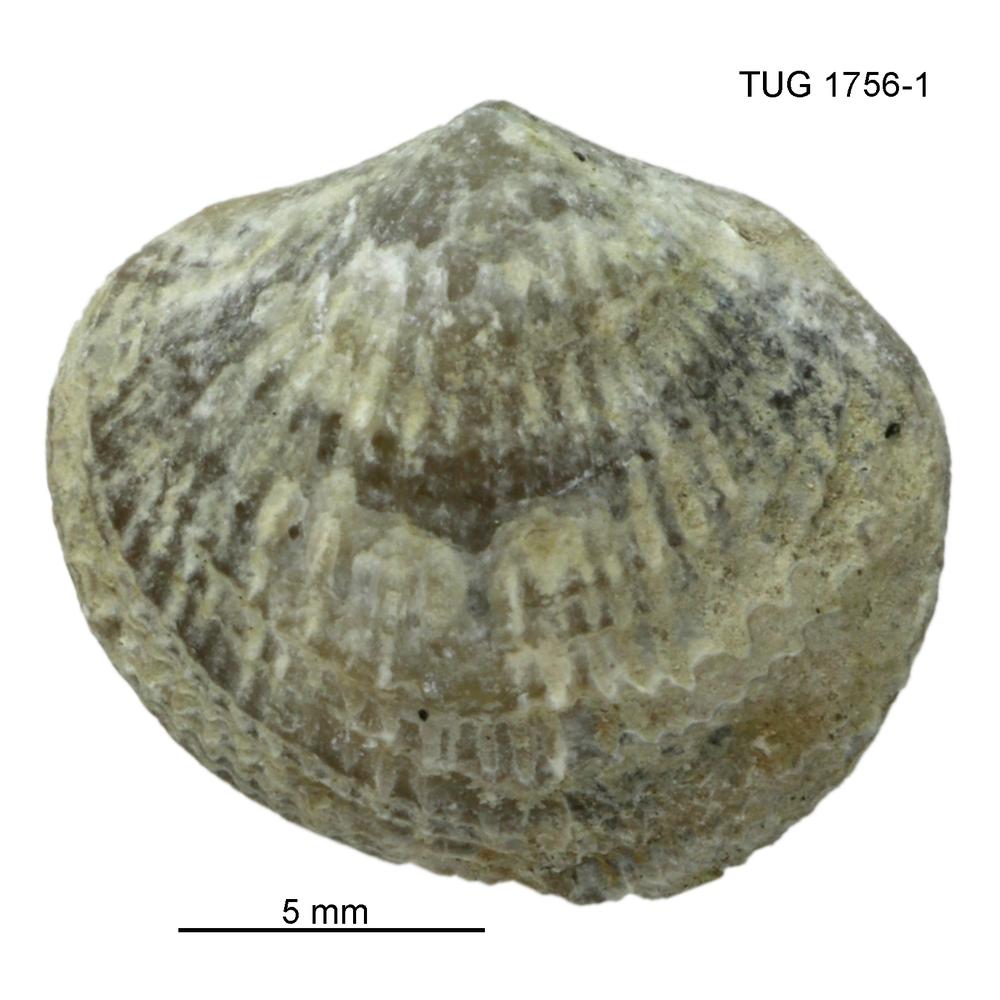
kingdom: Animalia
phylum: Brachiopoda
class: Rhynchonellata
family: Atrypidae
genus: Atrypa
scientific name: Atrypa reticularis
